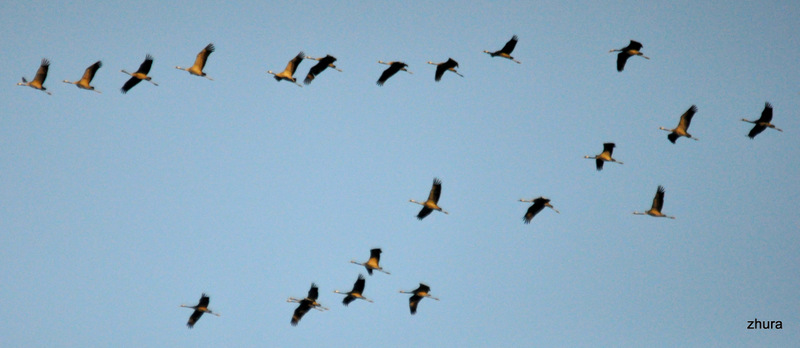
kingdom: Animalia
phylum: Chordata
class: Aves
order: Gruiformes
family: Gruidae
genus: Grus
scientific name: Grus grus
